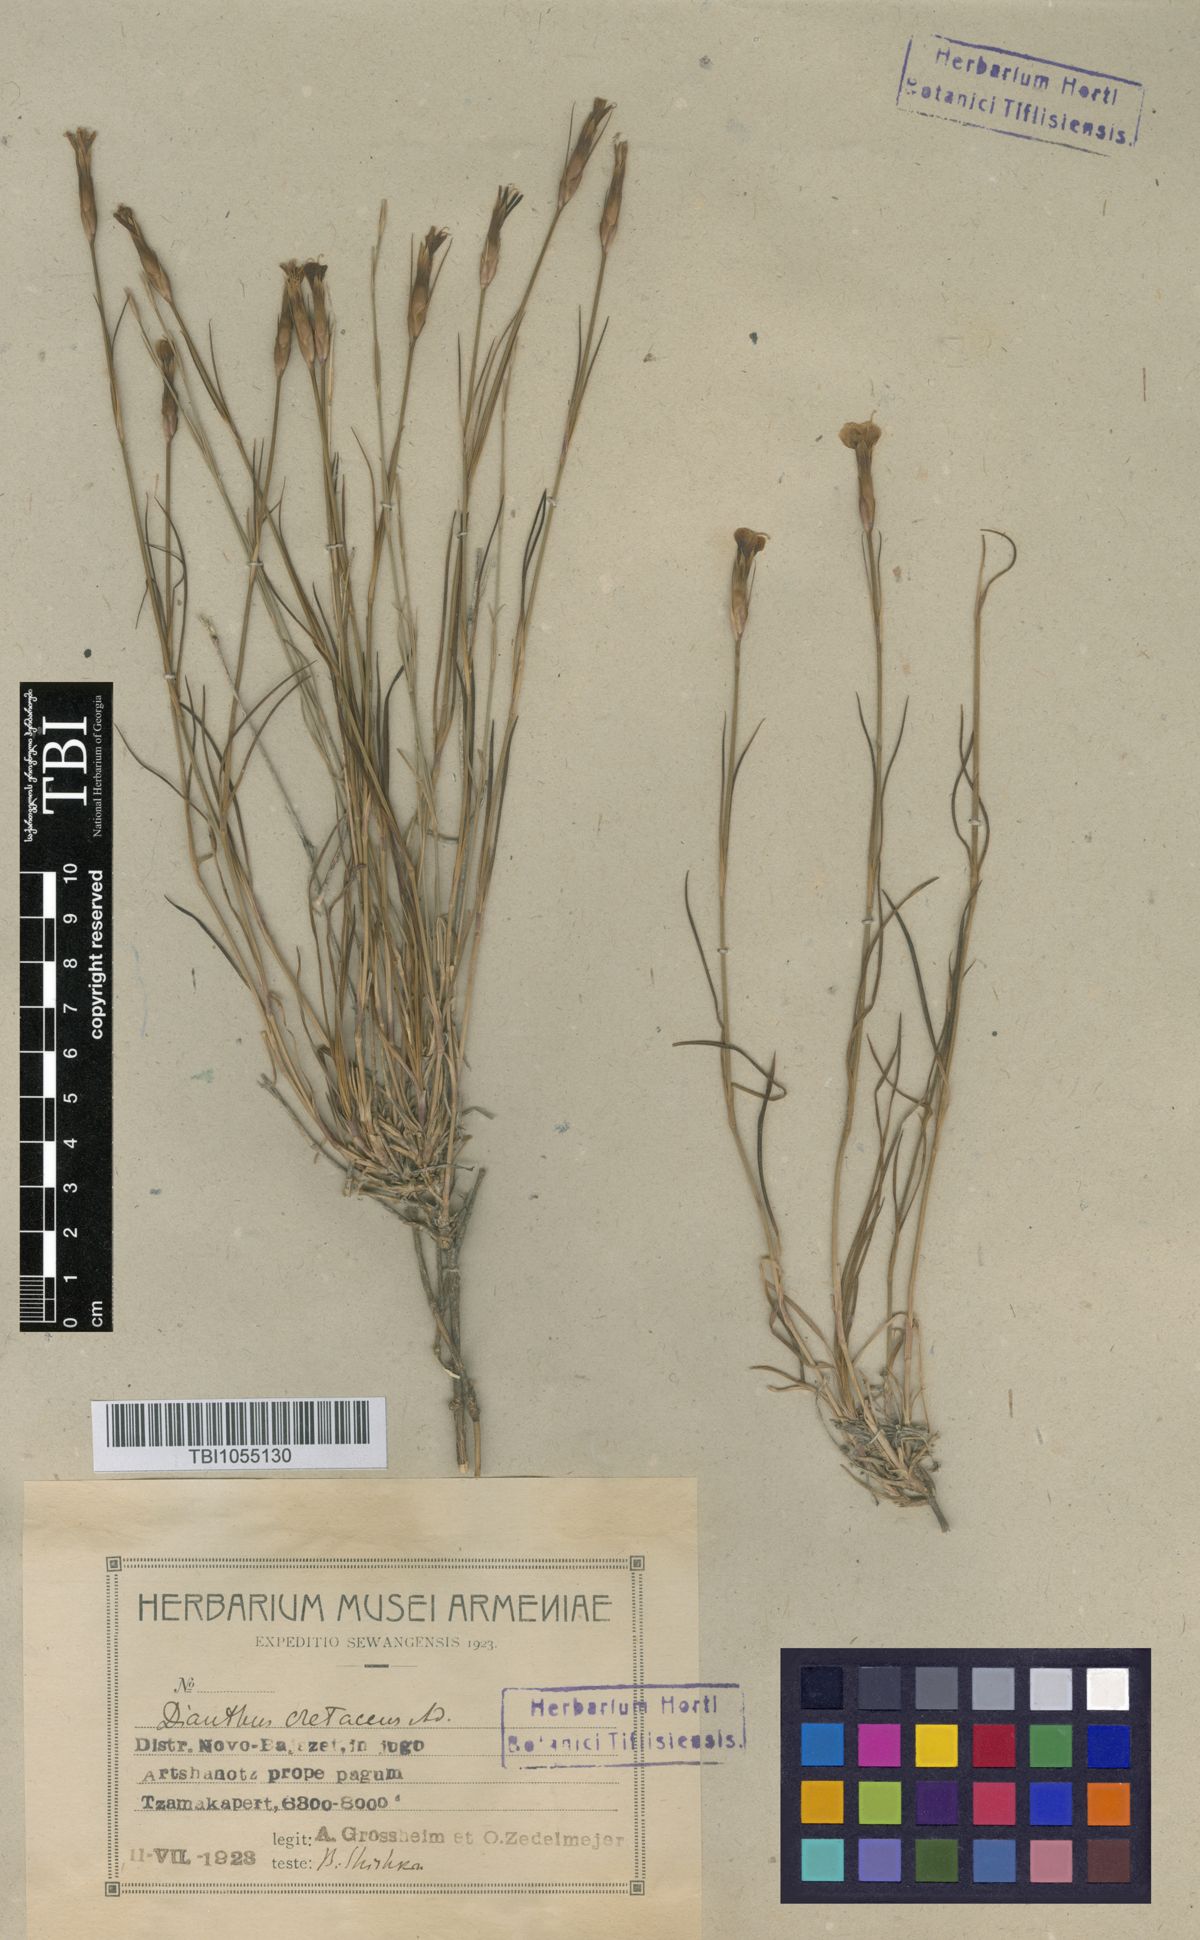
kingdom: Plantae
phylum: Tracheophyta
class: Magnoliopsida
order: Caryophyllales
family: Caryophyllaceae
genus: Dianthus
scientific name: Dianthus cretaceus
